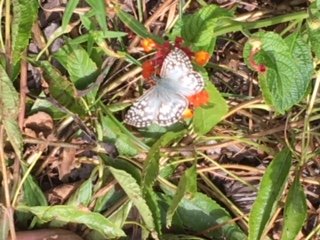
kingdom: Animalia
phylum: Arthropoda
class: Insecta
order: Lepidoptera
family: Hesperiidae
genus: Pyrgus
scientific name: Pyrgus oileus
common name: Tropical Checkered-Skipper
